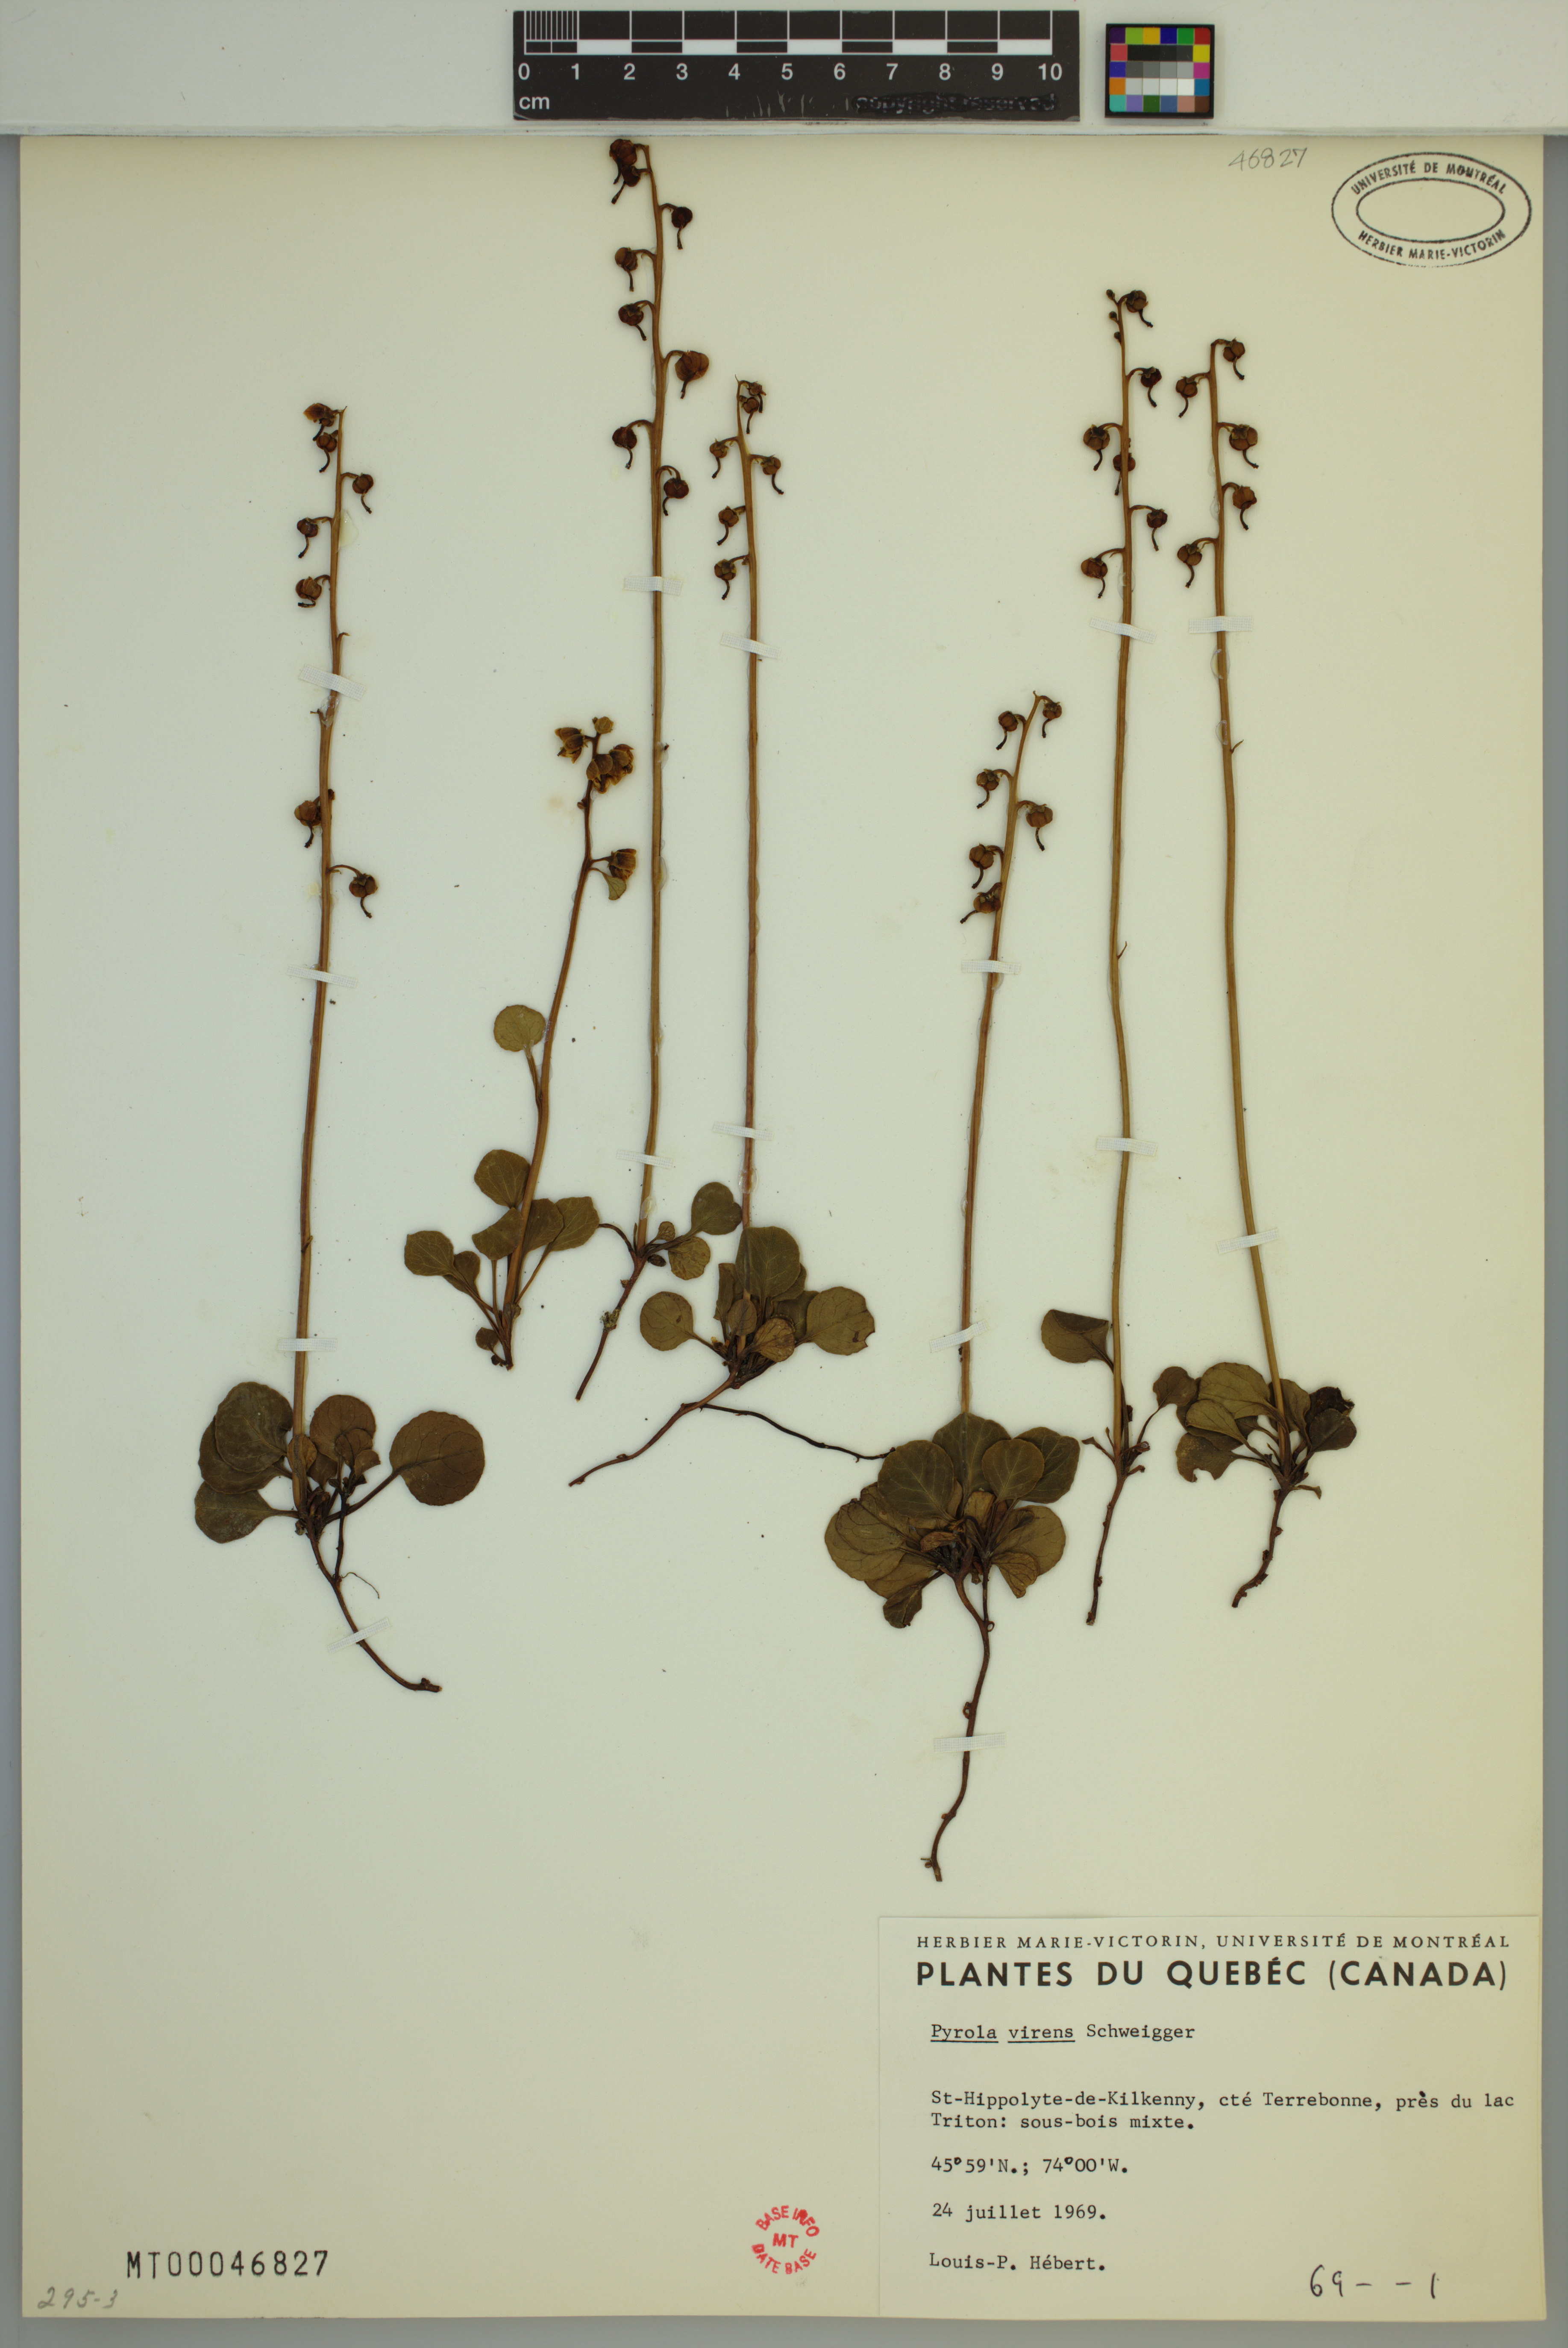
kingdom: Plantae
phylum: Tracheophyta
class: Magnoliopsida
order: Ericales
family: Ericaceae
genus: Pyrola
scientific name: Pyrola chlorantha
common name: Green wintergreen
